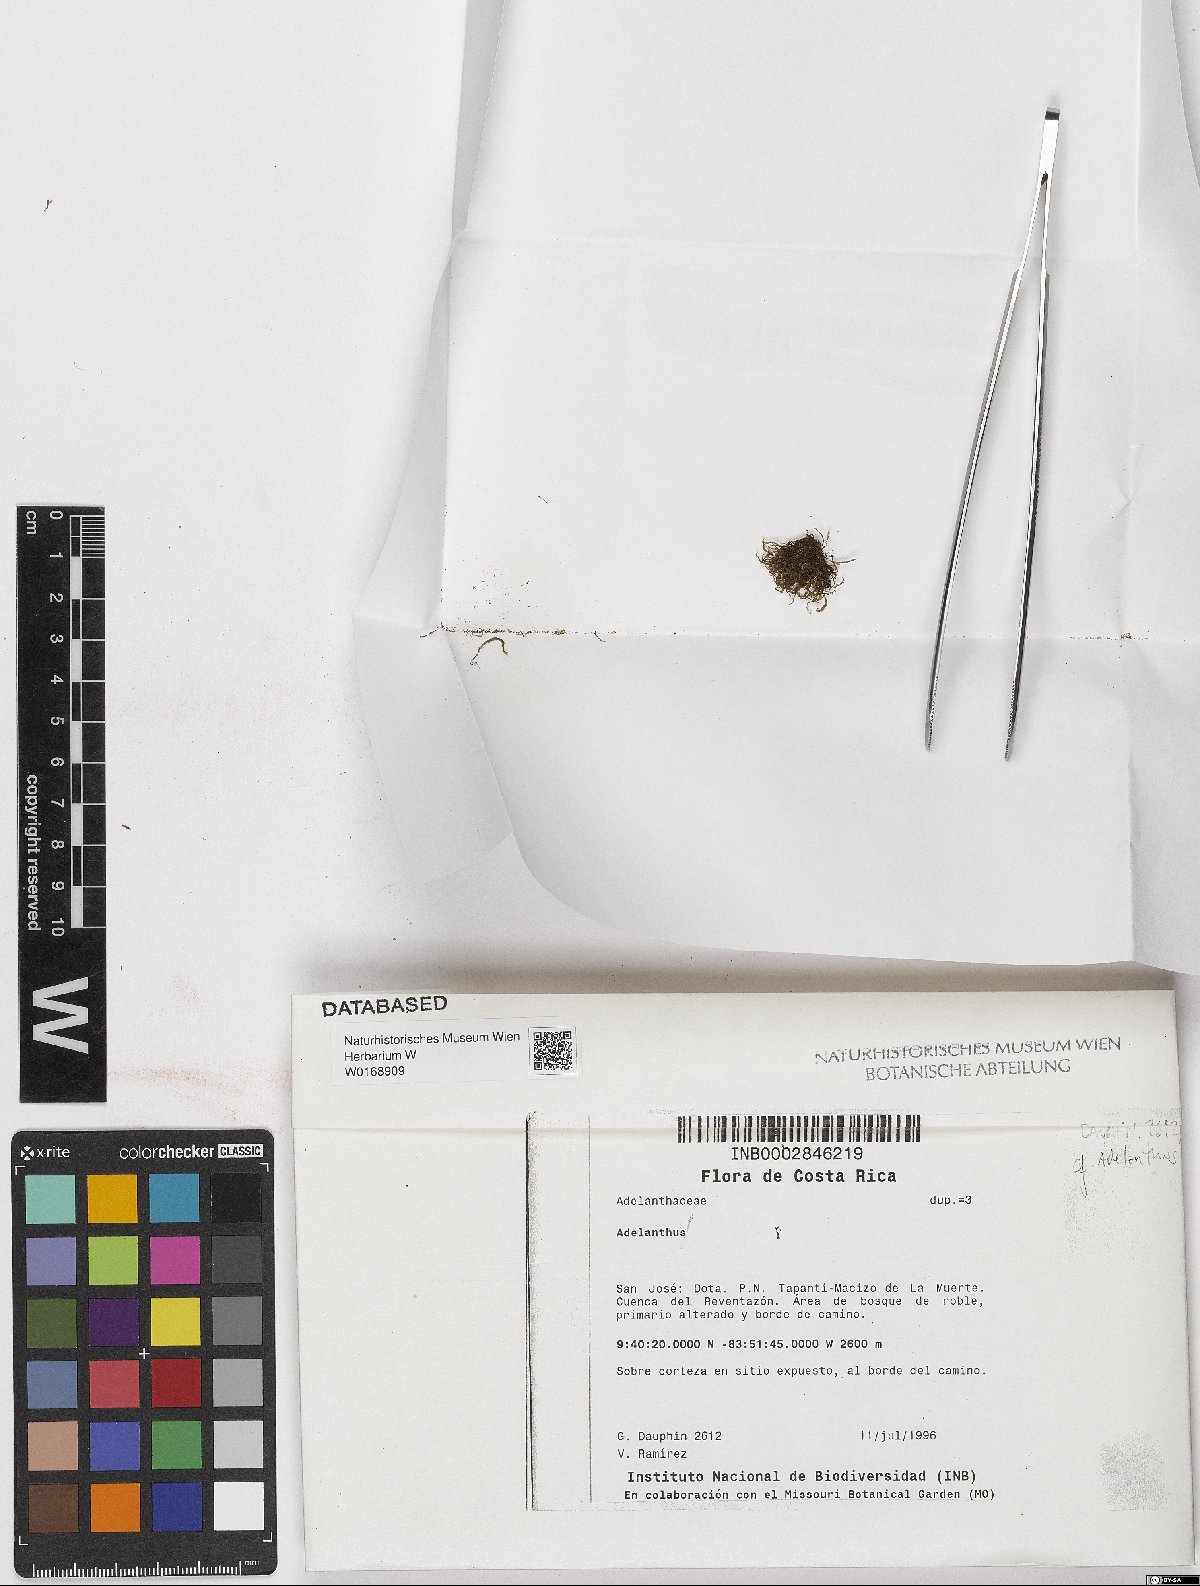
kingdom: Plantae
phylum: Tracheophyta
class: Magnoliopsida
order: Icacinales
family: Icacinaceae
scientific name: Icacinaceae
